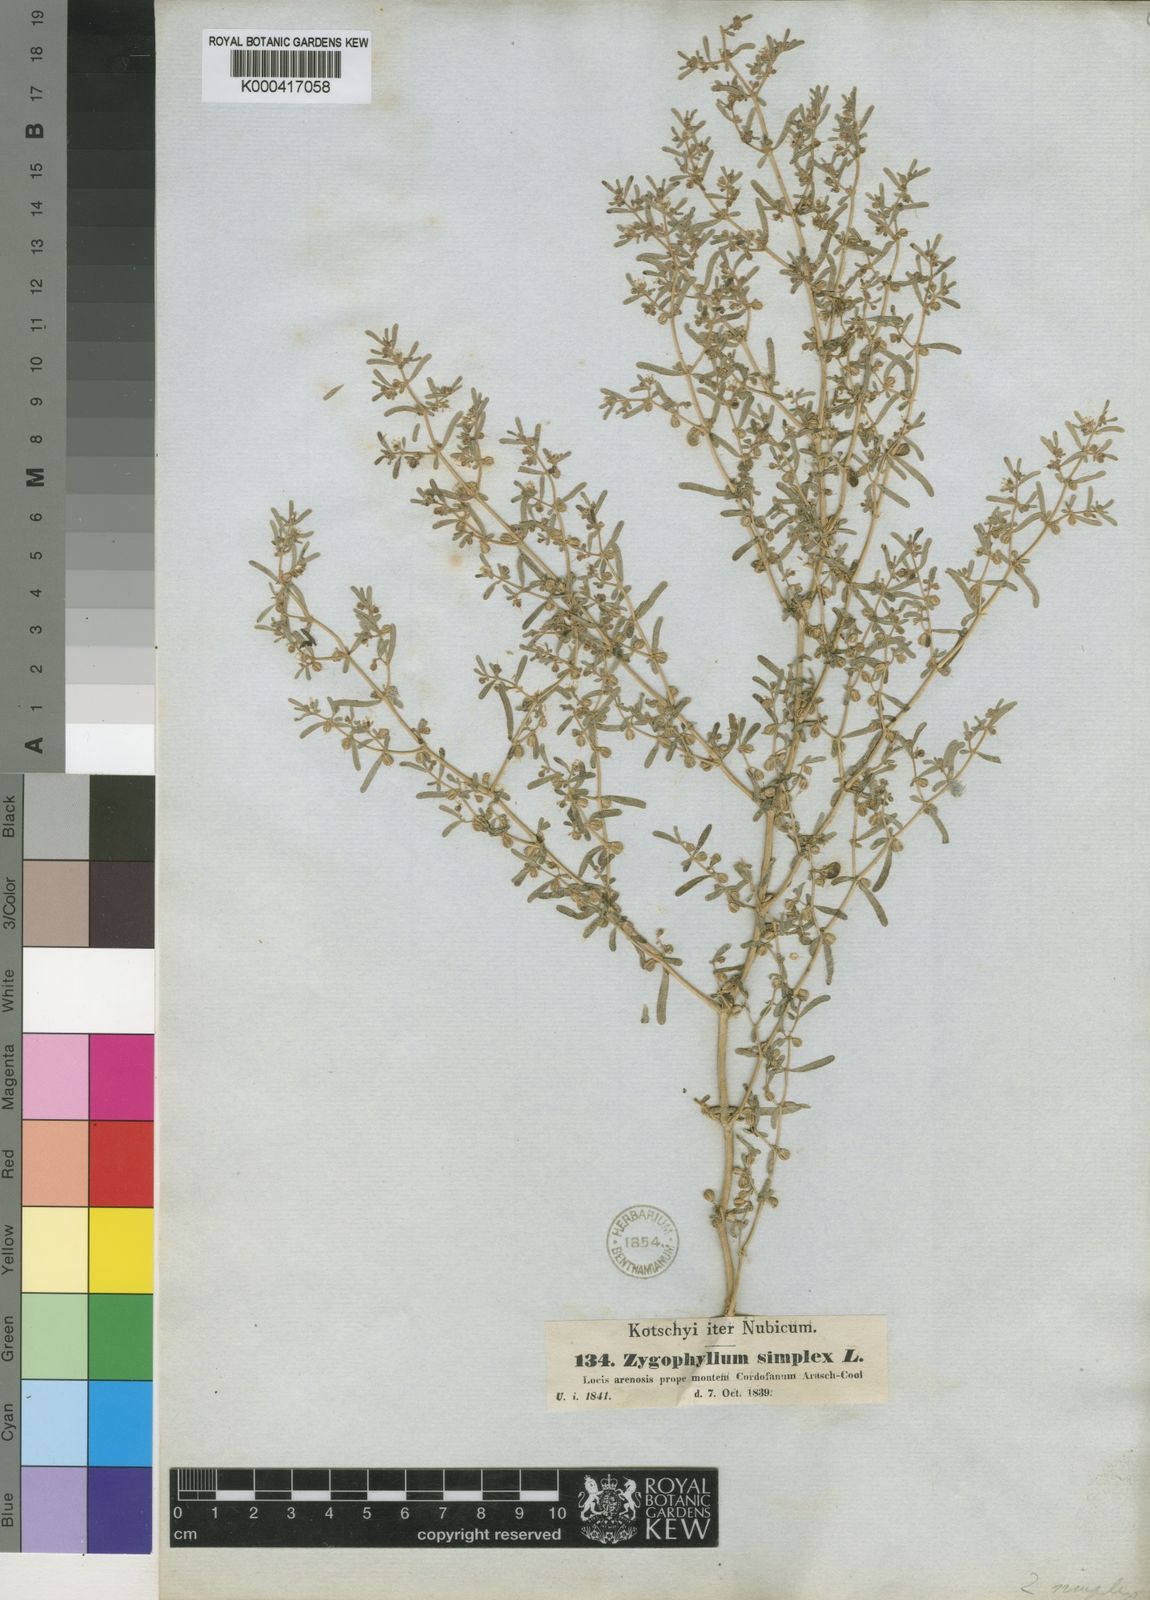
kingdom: Plantae
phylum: Tracheophyta
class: Magnoliopsida
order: Zygophyllales
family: Zygophyllaceae
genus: Tetraena
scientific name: Tetraena simplex
